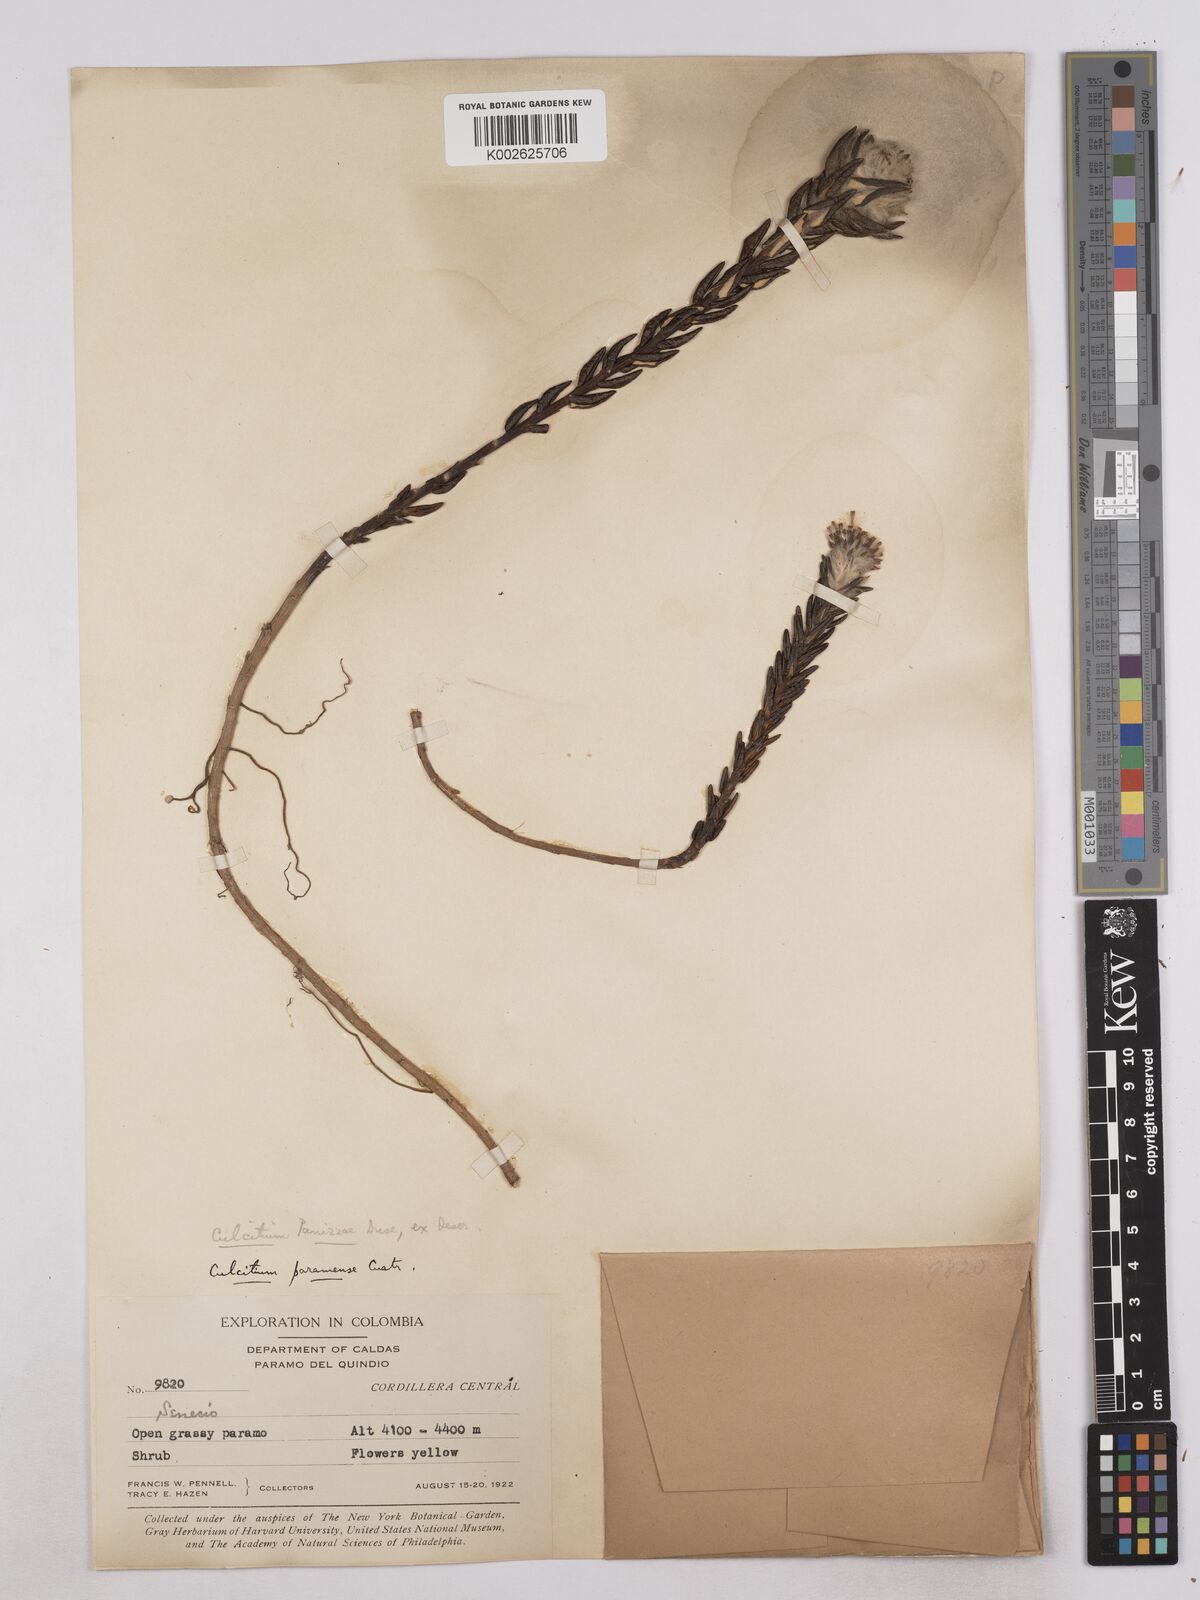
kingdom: Plantae
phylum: Tracheophyta
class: Magnoliopsida
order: Asterales
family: Asteraceae
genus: Monticalia
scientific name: Monticalia gelida
